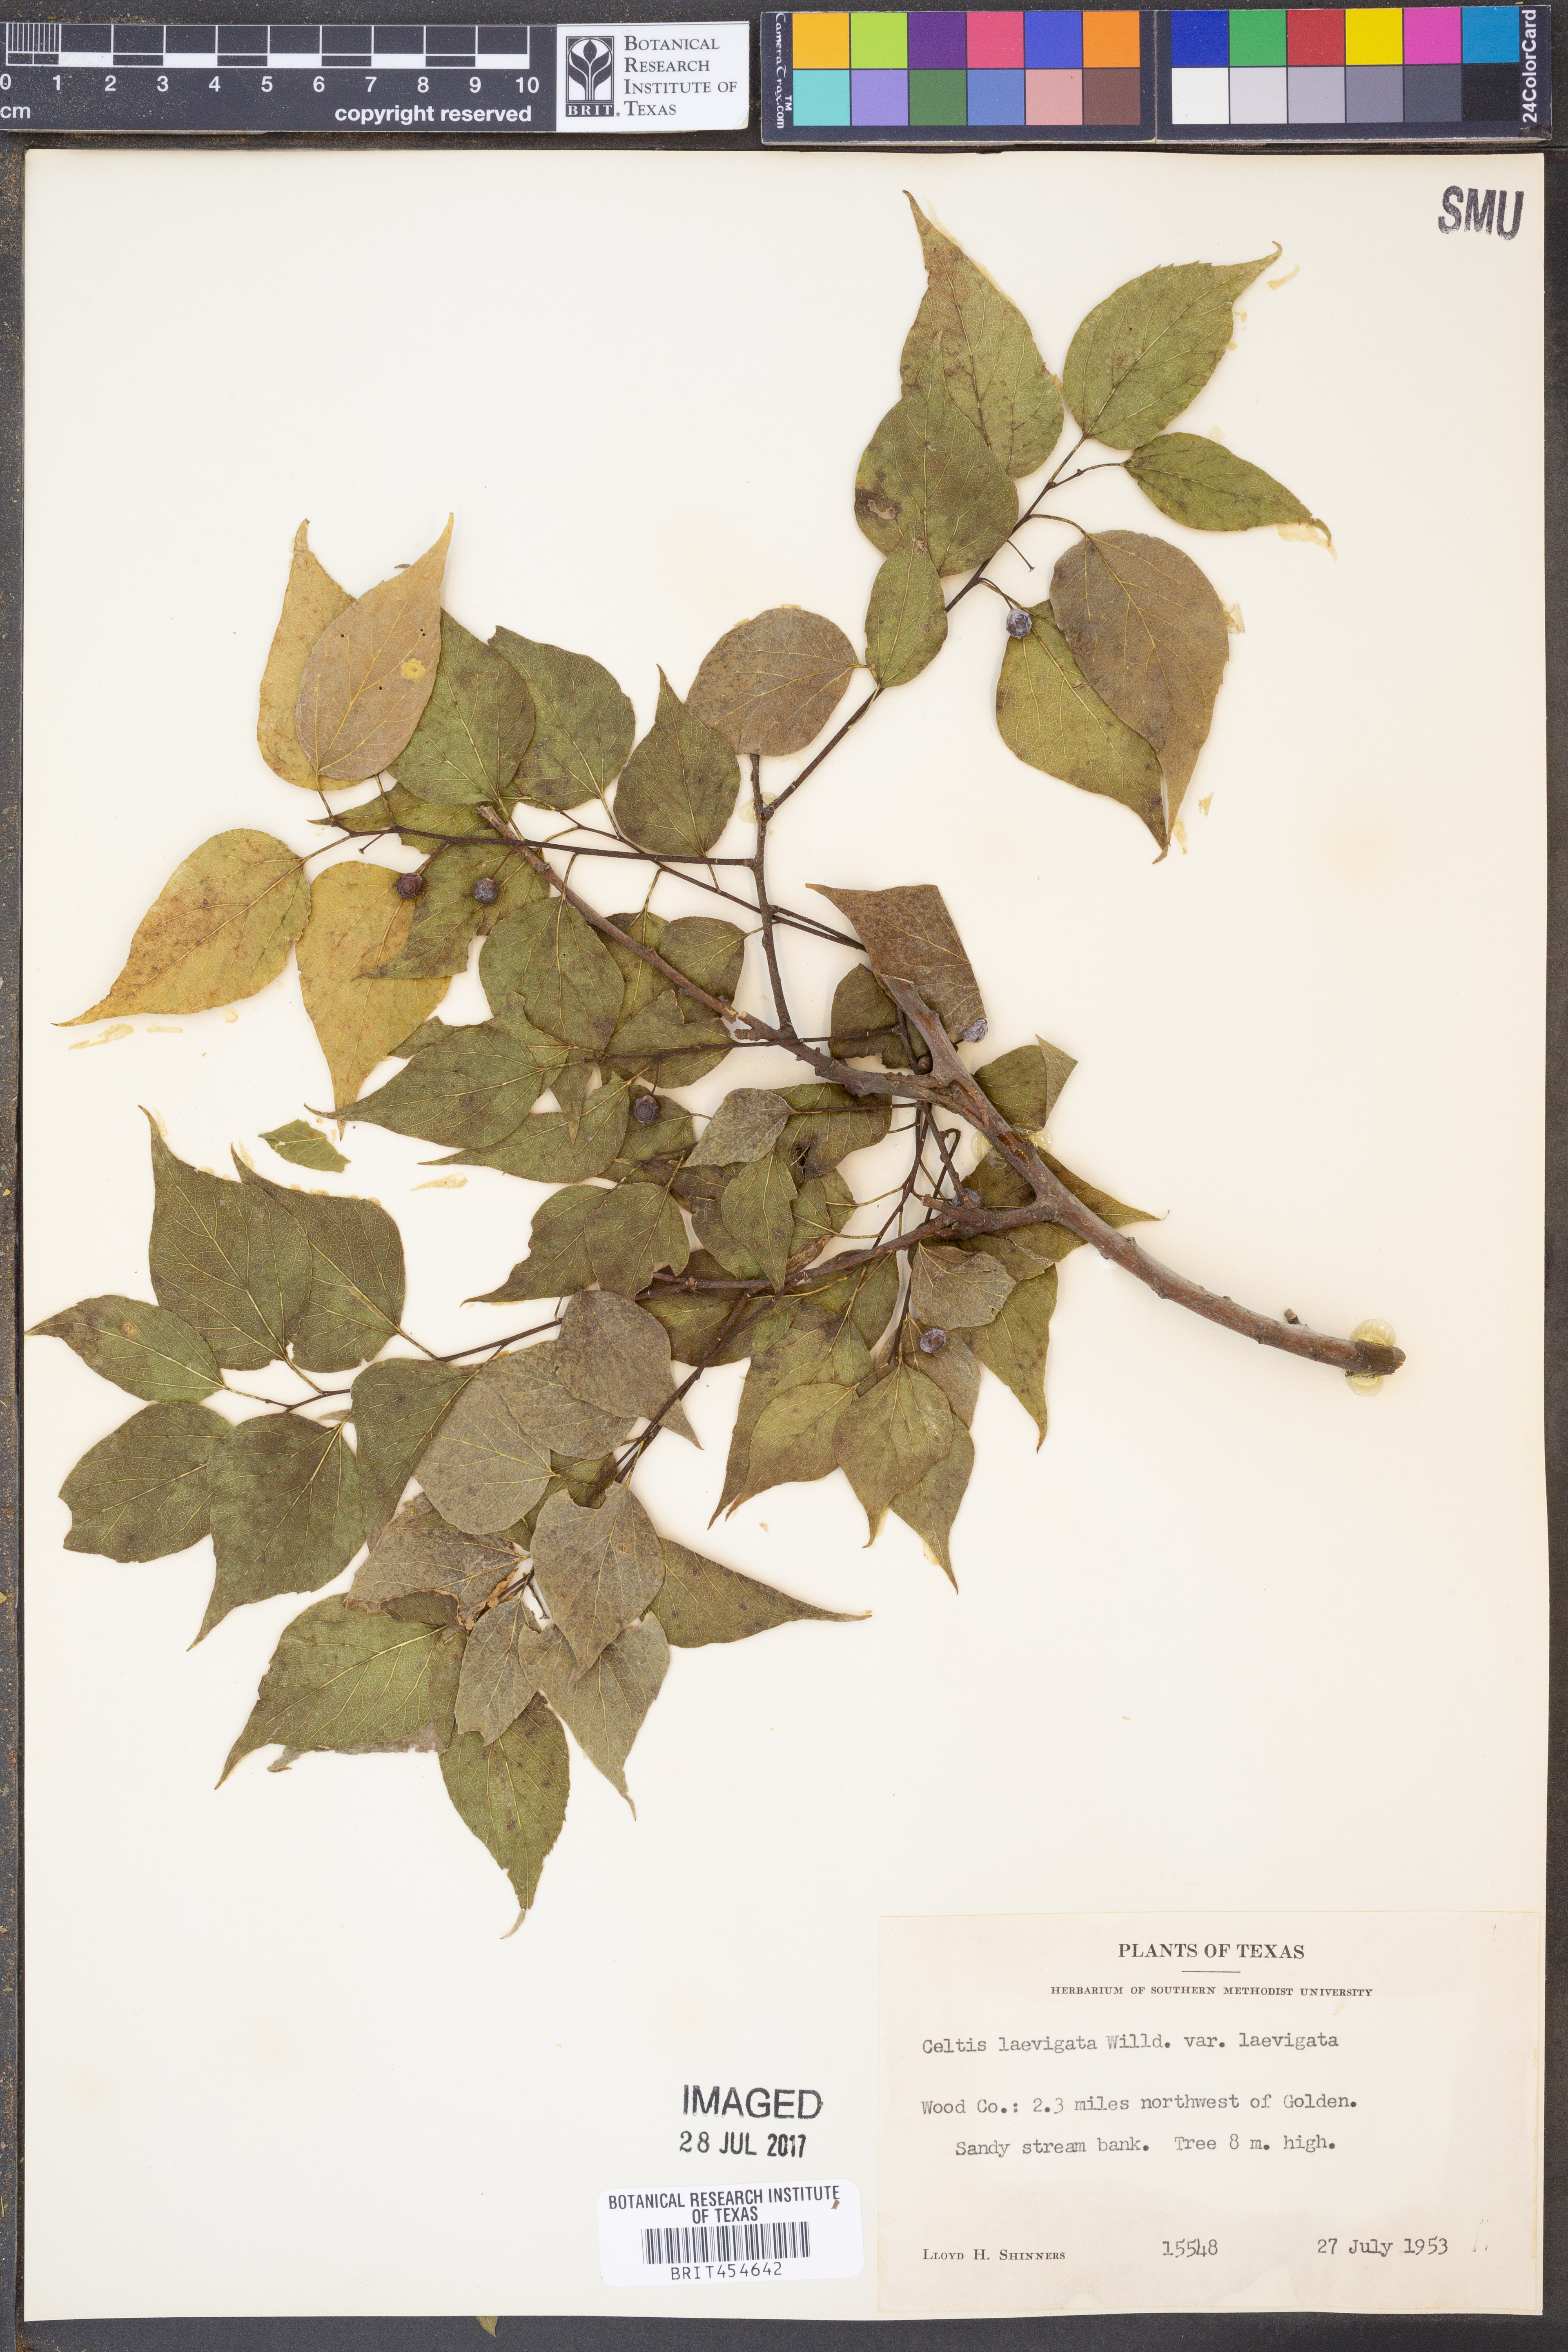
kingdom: Plantae
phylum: Tracheophyta
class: Magnoliopsida
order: Rosales
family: Cannabaceae
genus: Celtis
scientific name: Celtis laevigata
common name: Sugarberry
